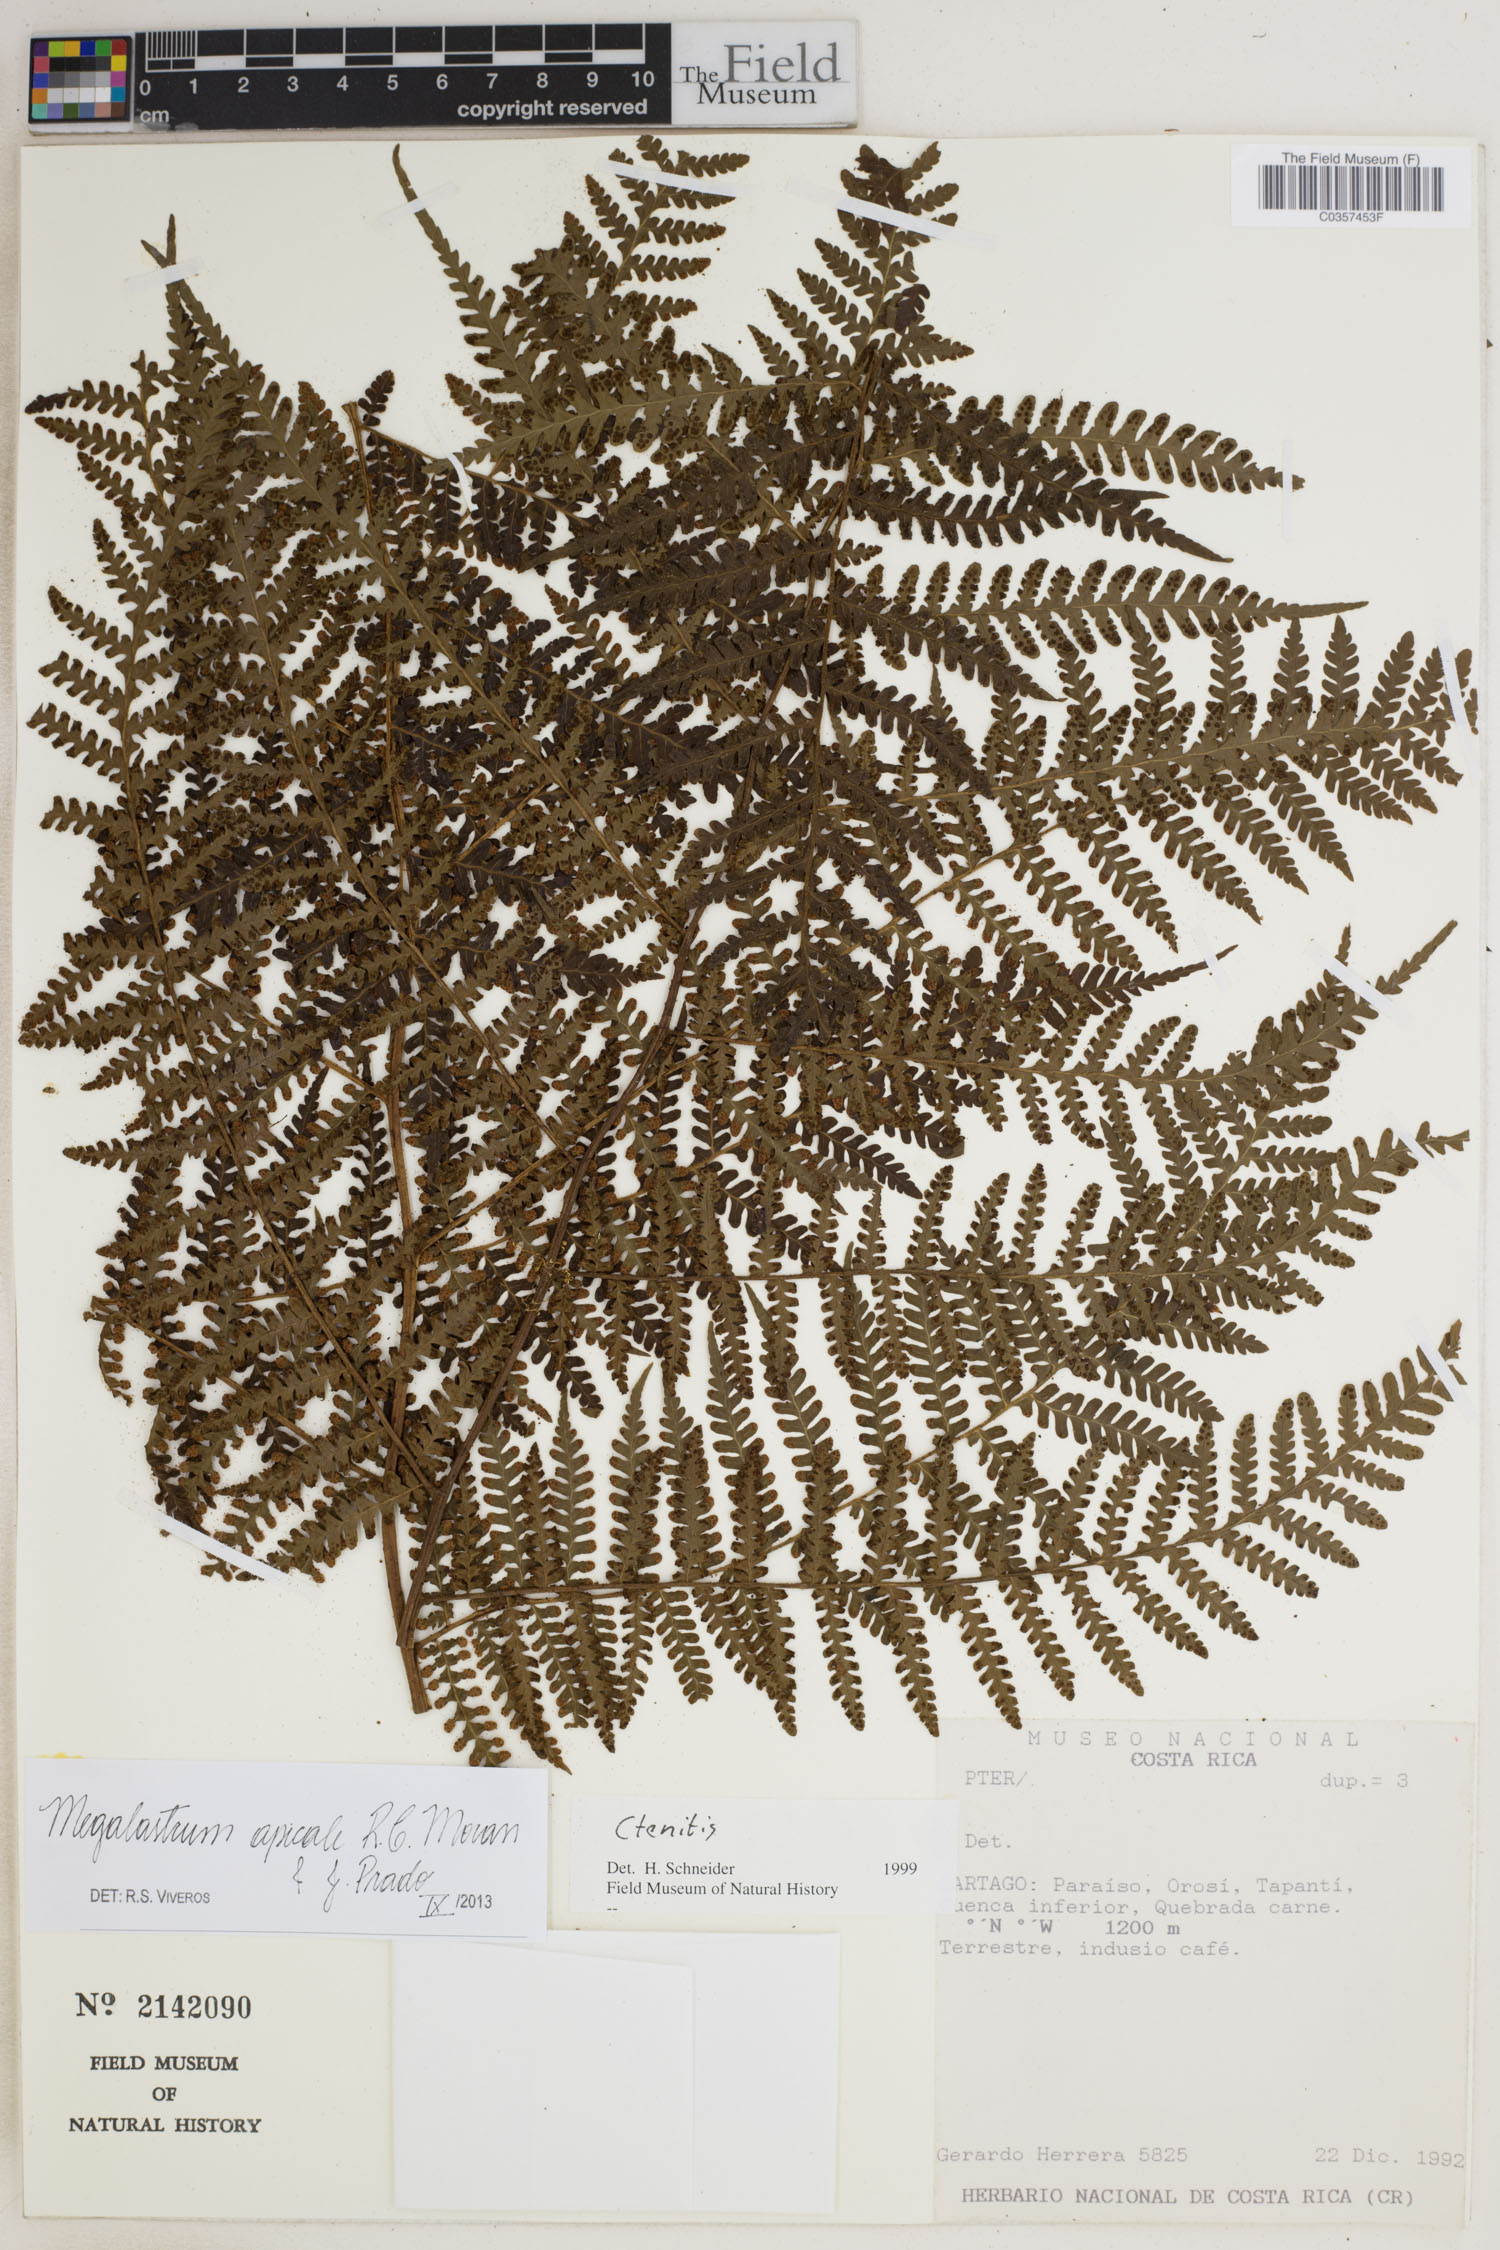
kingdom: Plantae
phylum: Tracheophyta
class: Polypodiopsida
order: Polypodiales
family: Dryopteridaceae
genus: Megalastrum
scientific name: Megalastrum apicale
